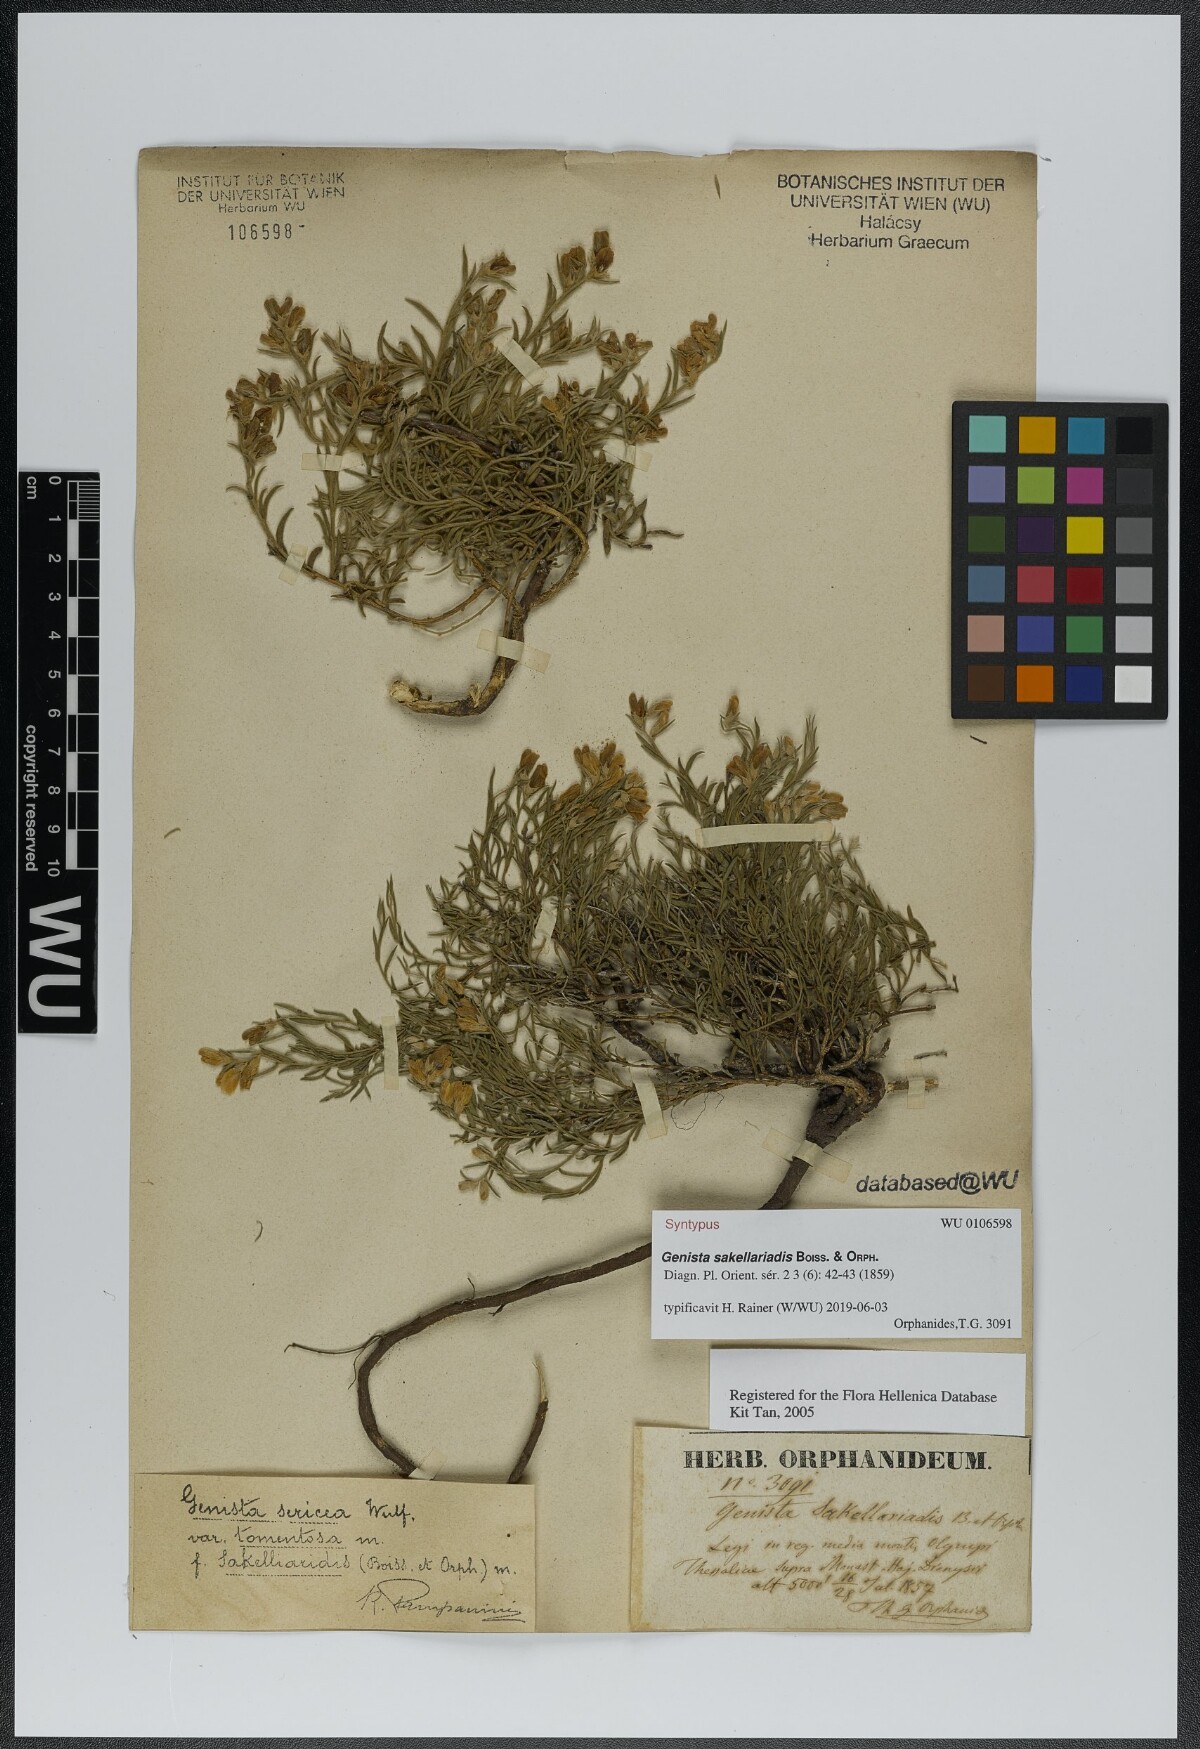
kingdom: Plantae
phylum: Tracheophyta
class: Magnoliopsida
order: Fabales
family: Fabaceae
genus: Genista
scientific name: Genista sakellariadis
